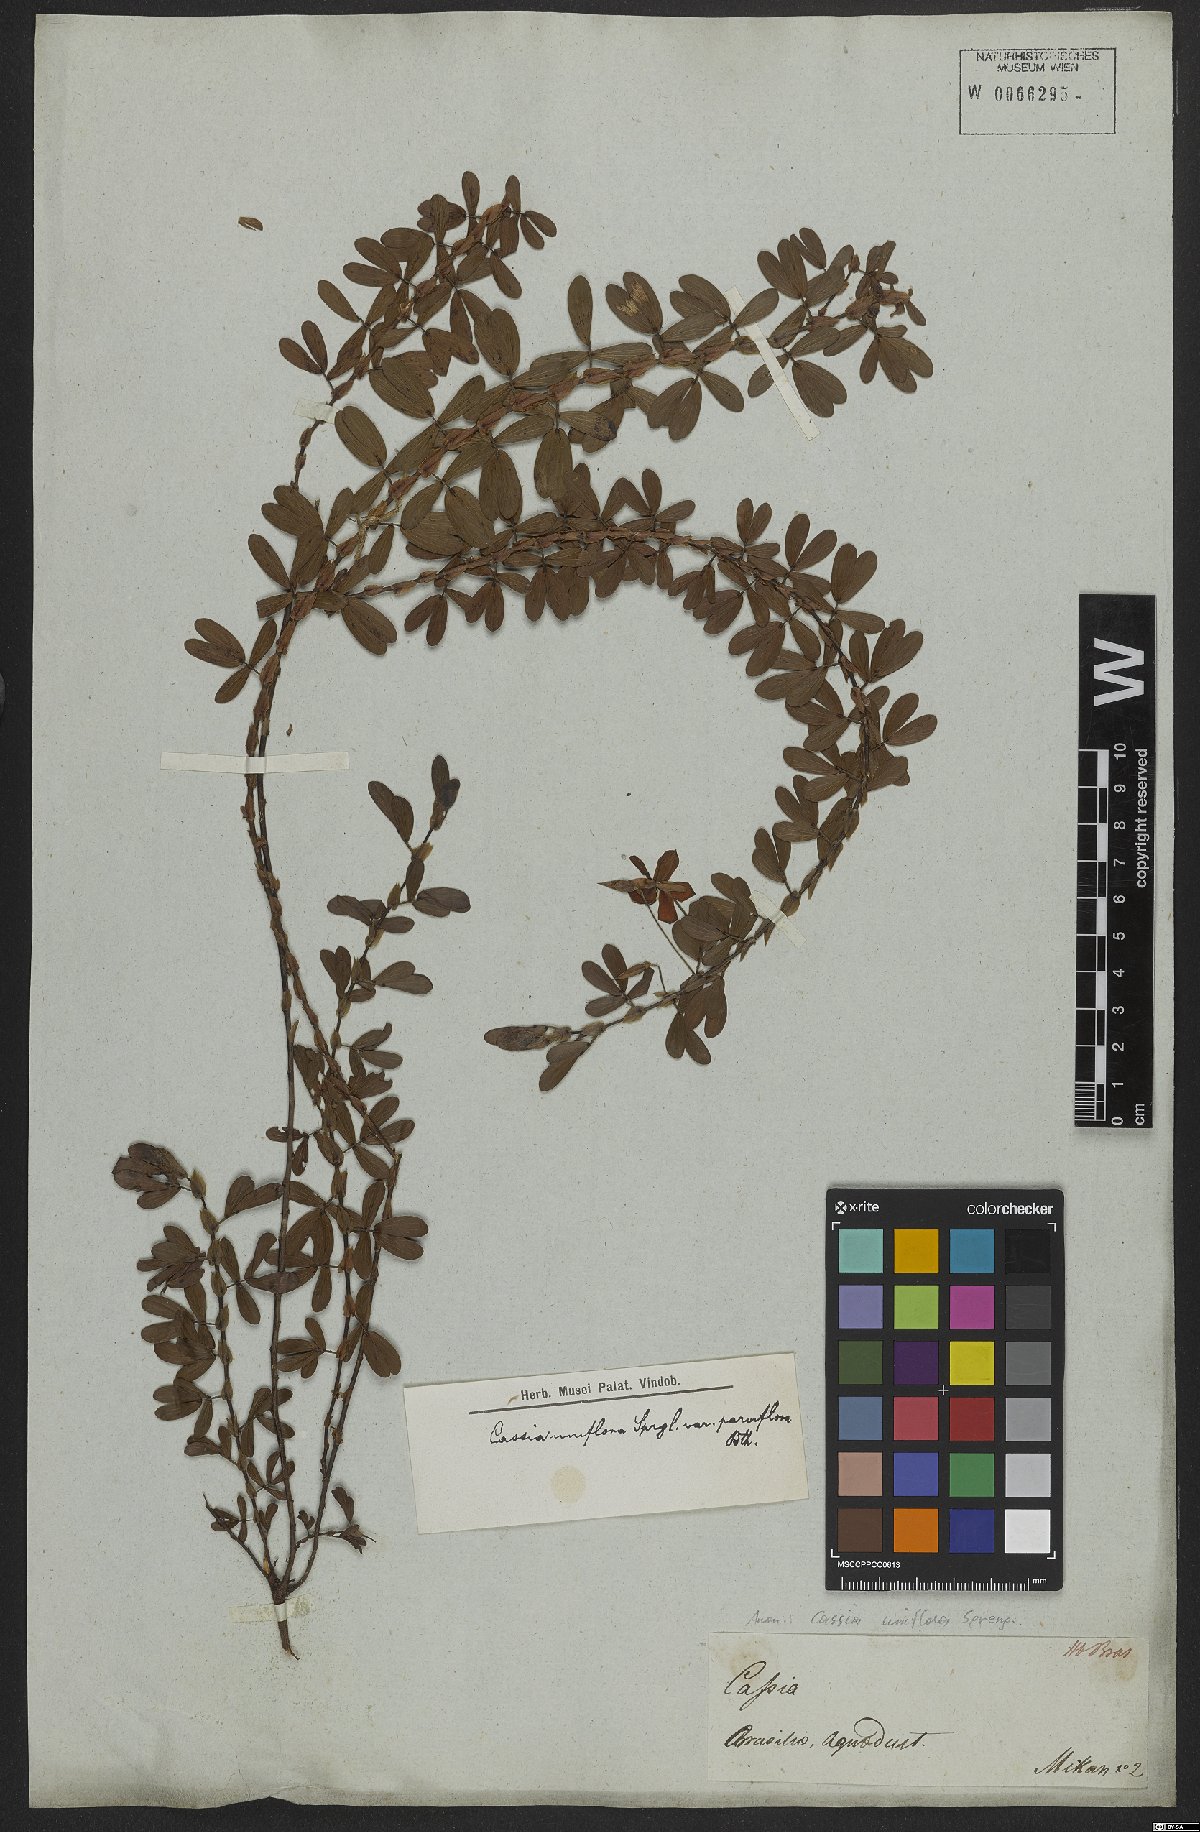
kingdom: Plantae
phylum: Tracheophyta
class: Magnoliopsida
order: Fabales
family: Fabaceae
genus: Senna
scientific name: Senna uniflora
